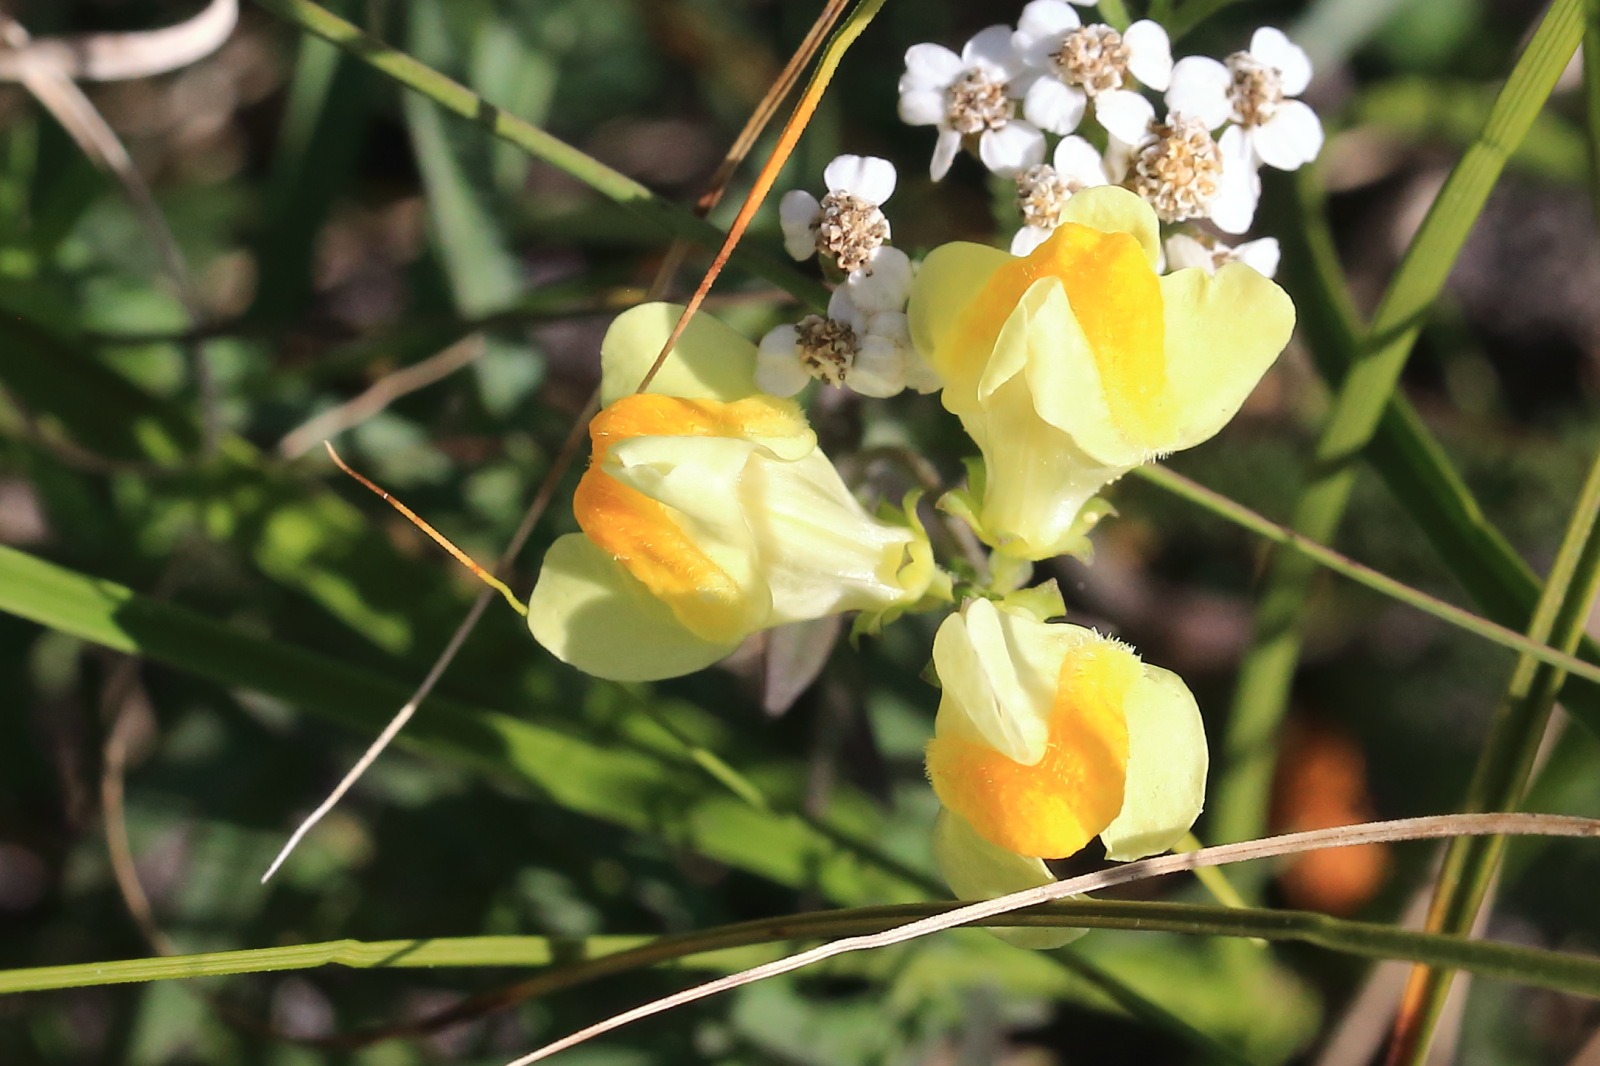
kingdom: Plantae
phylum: Tracheophyta
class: Magnoliopsida
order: Lamiales
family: Plantaginaceae
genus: Linaria
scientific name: Linaria vulgaris
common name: Almindelig torskemund
